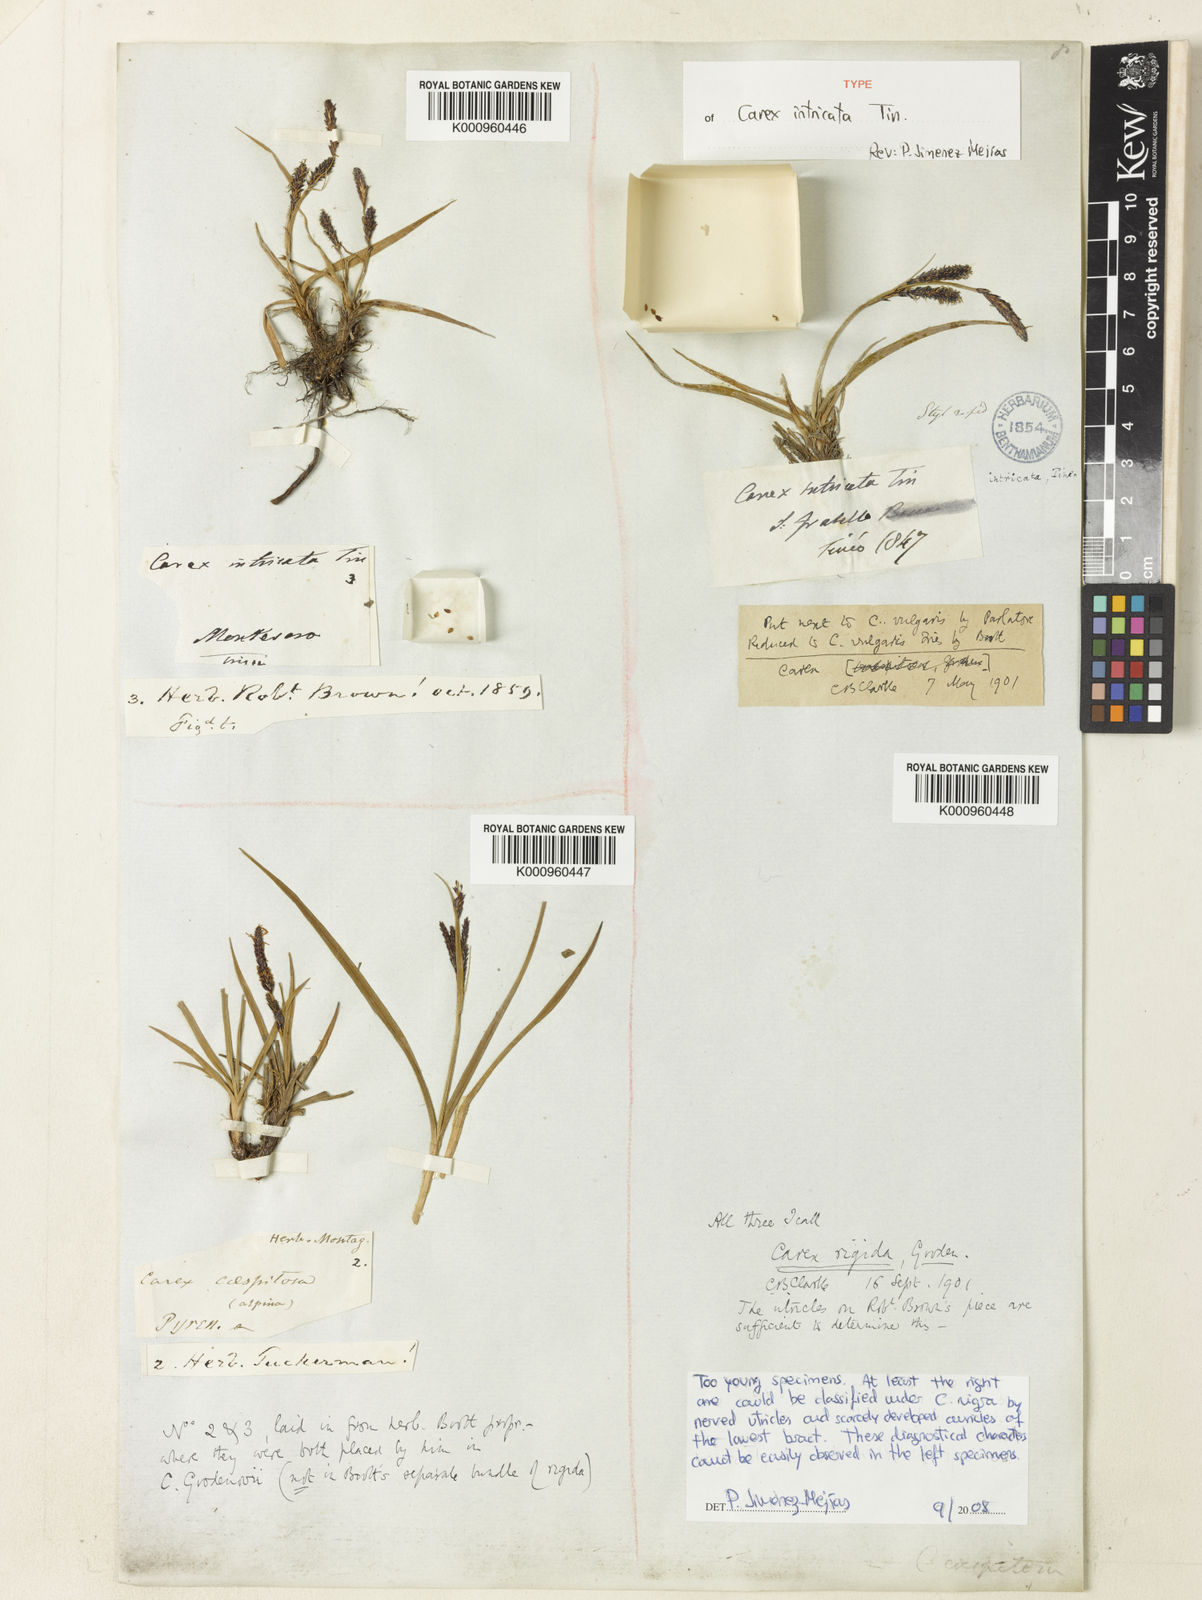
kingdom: Plantae
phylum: Tracheophyta
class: Liliopsida
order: Poales
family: Cyperaceae
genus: Carex
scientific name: Carex nigra
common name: Common sedge
